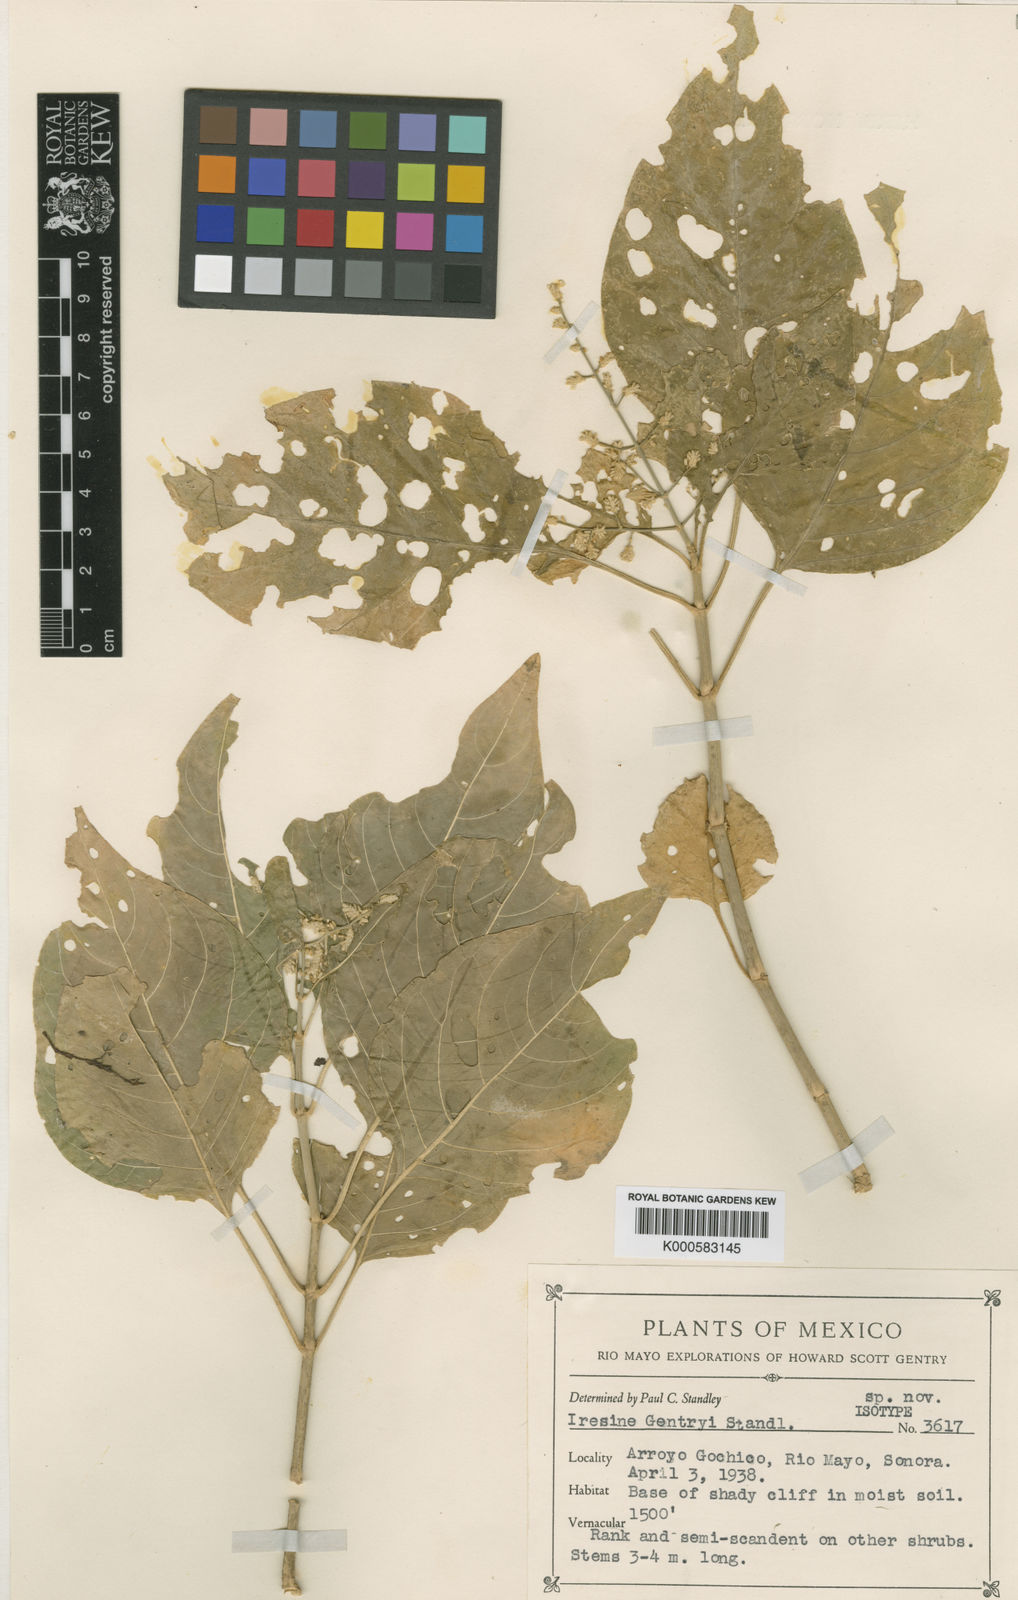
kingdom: Plantae
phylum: Tracheophyta
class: Magnoliopsida
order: Caryophyllales
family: Amaranthaceae
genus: Iresine
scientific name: Iresine
